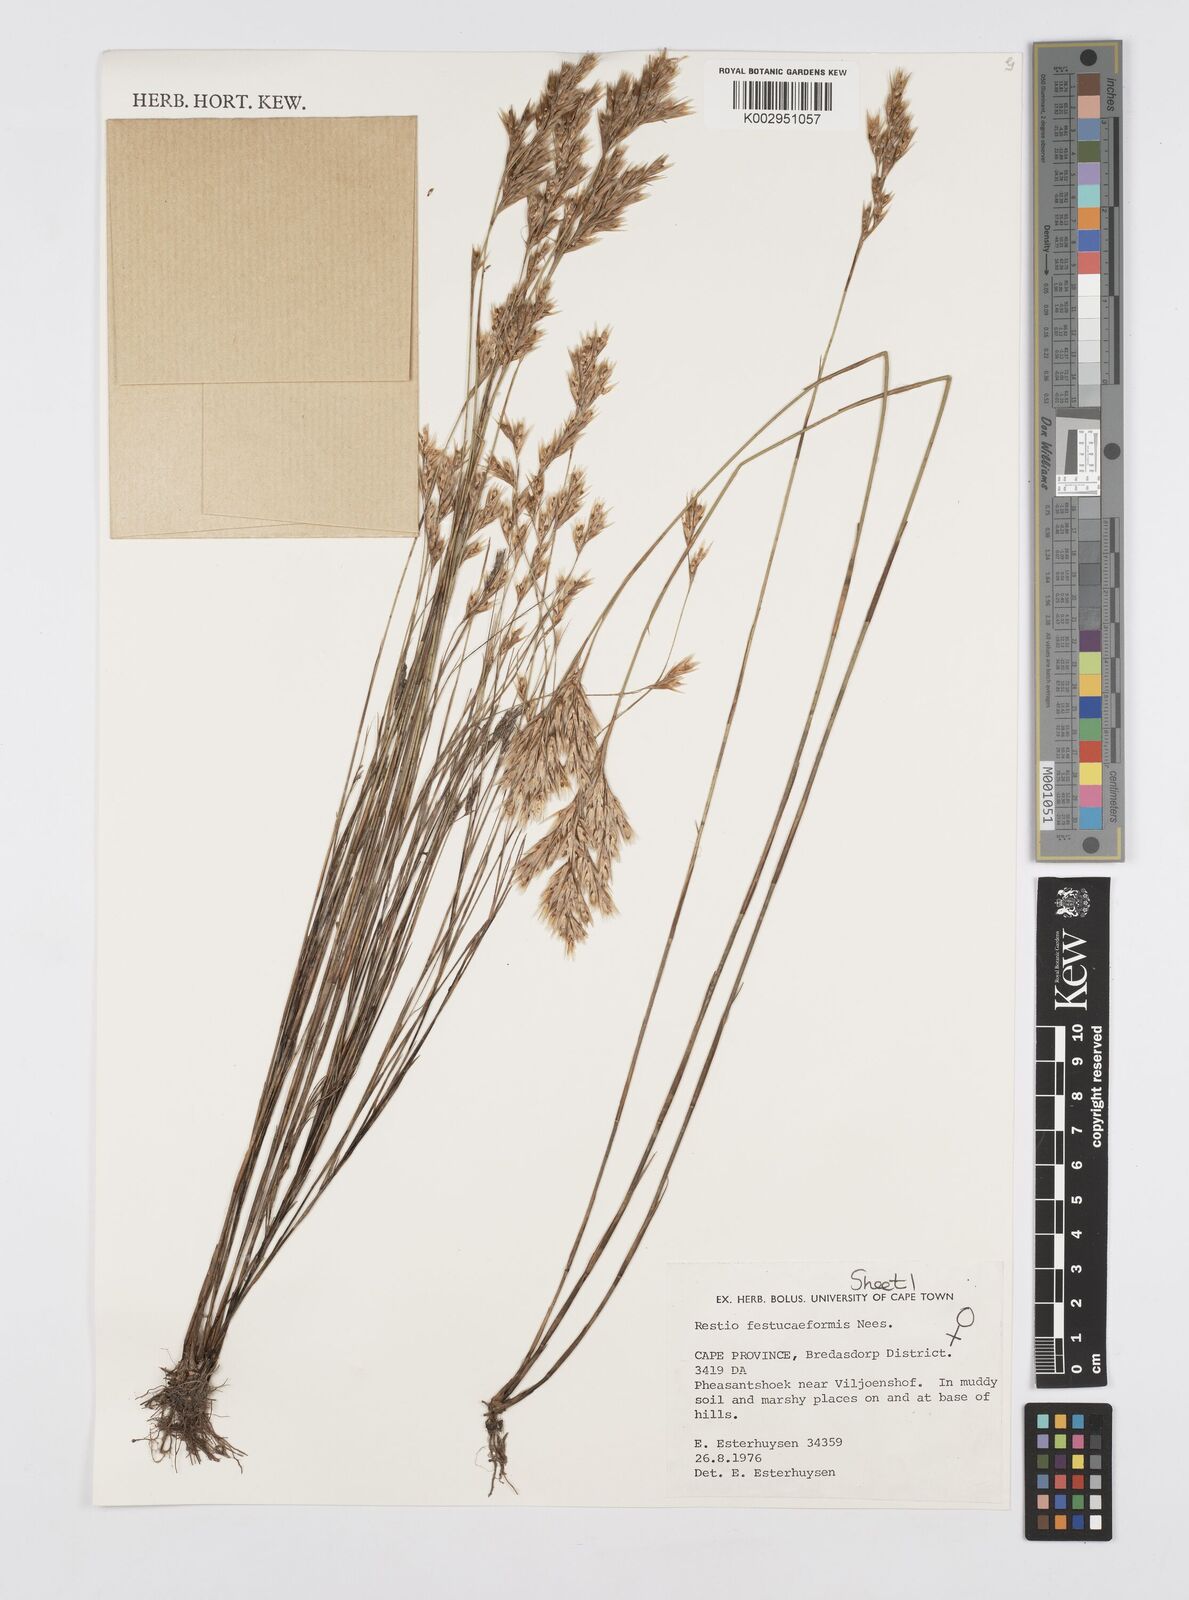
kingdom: Plantae
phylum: Tracheophyta
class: Liliopsida
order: Poales
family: Restionaceae
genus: Restio
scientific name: Restio festuciformis
